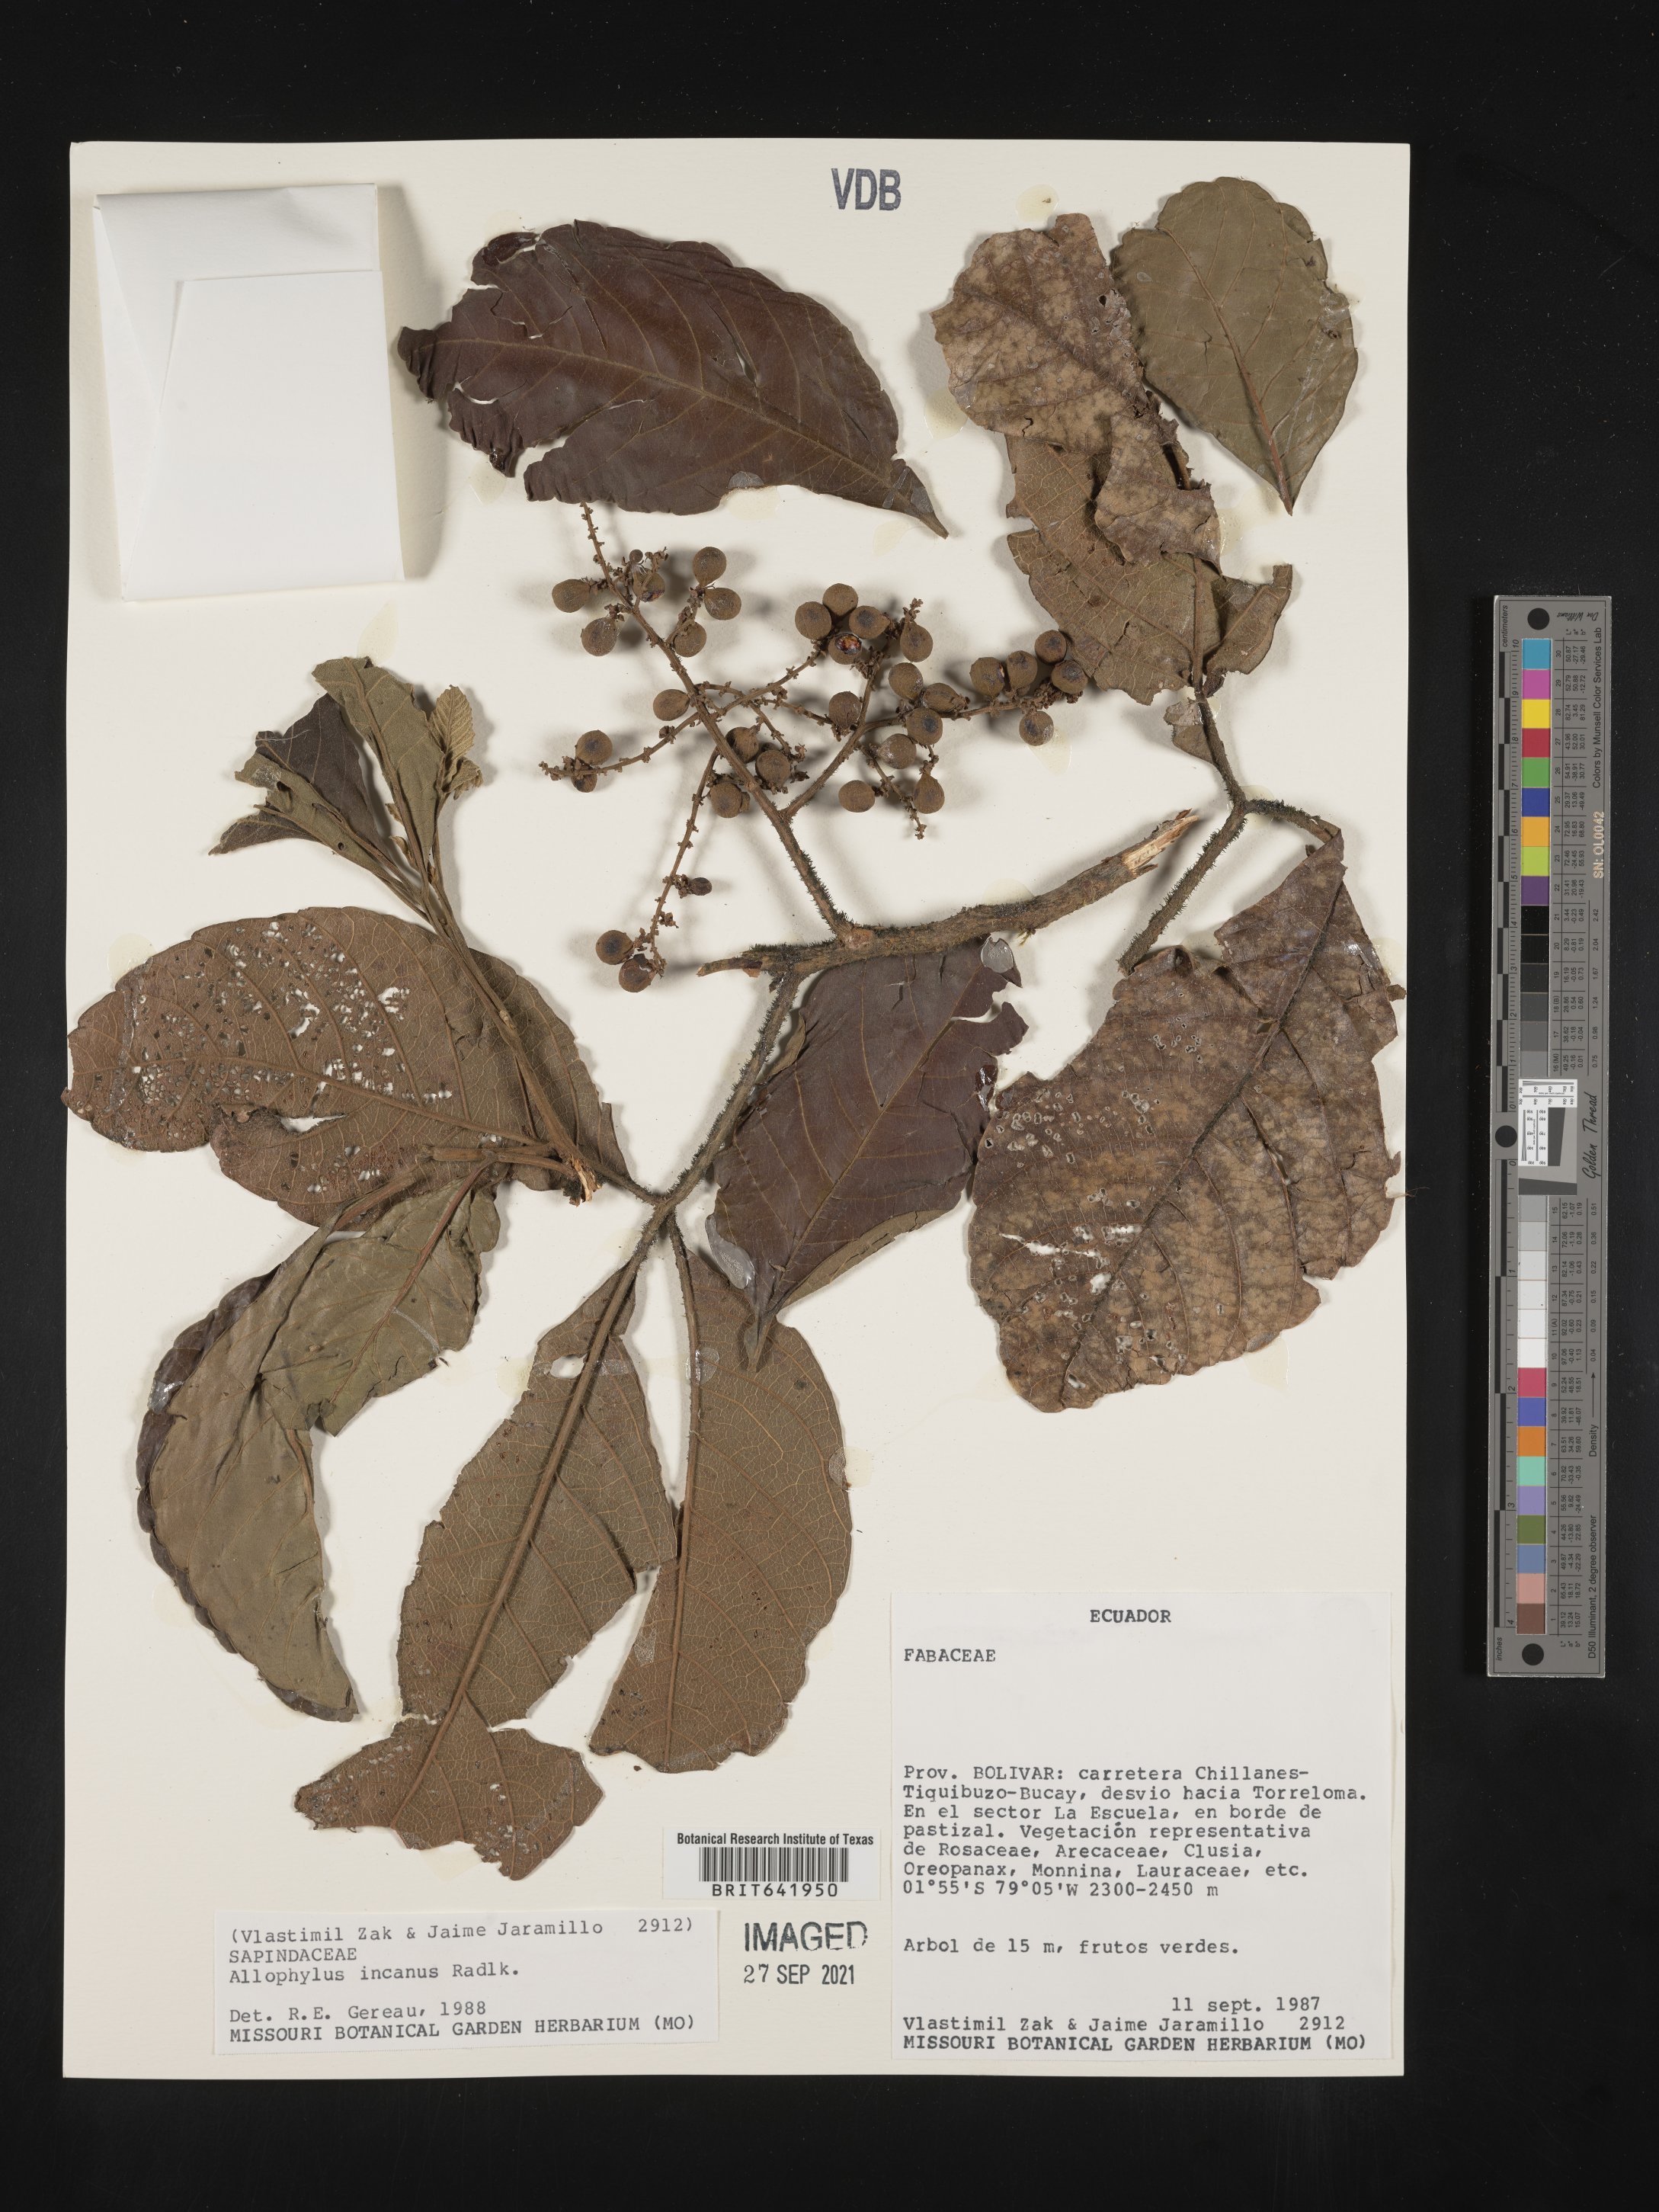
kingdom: Plantae
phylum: Tracheophyta
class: Magnoliopsida
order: Sapindales
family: Sapindaceae
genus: Allophylus
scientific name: Allophylus
